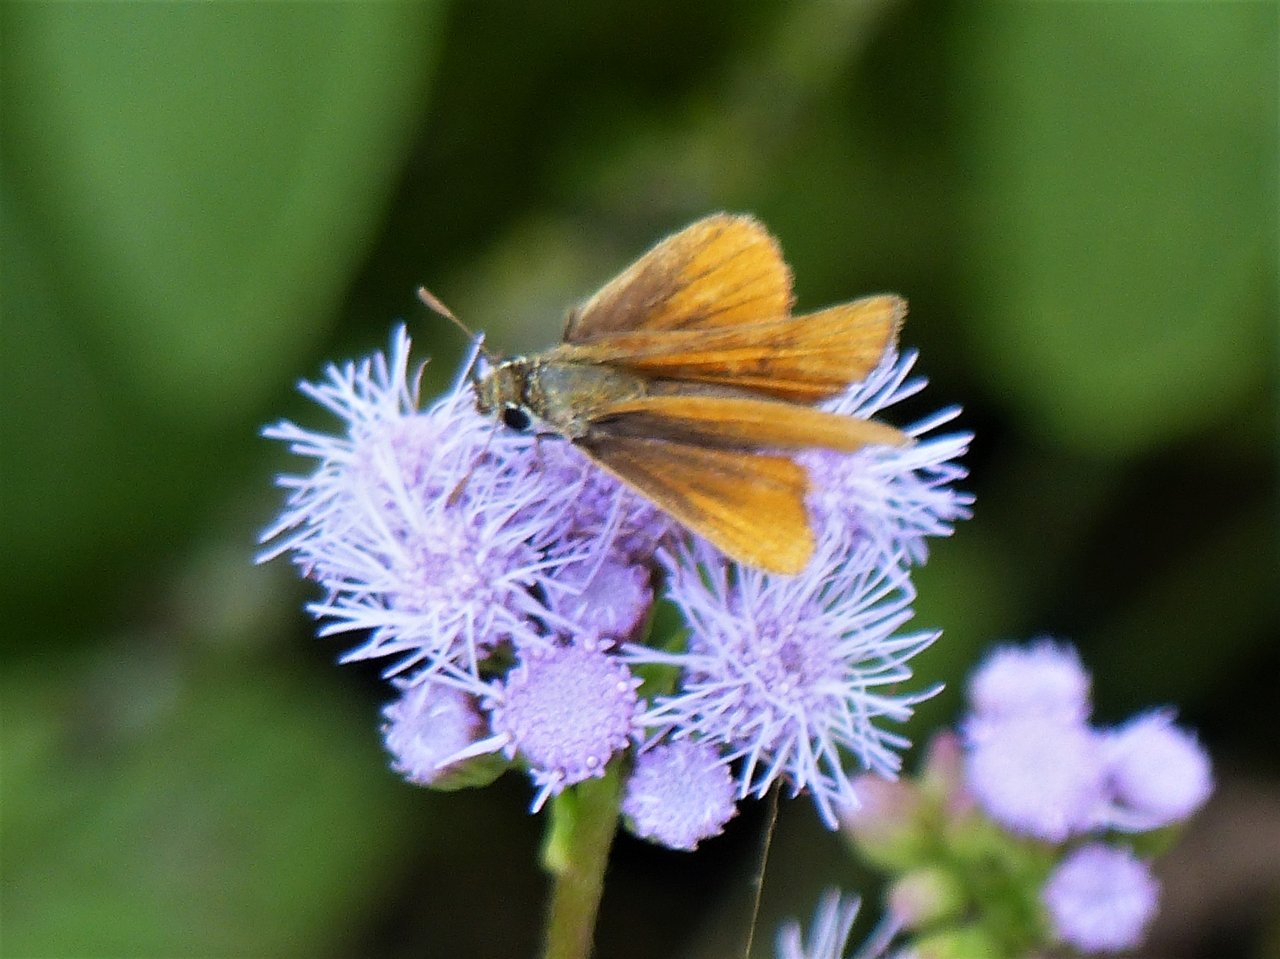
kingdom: Animalia
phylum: Arthropoda
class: Insecta
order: Lepidoptera
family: Hesperiidae
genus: Copaeodes
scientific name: Copaeodes minima
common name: Southern Skipperling
